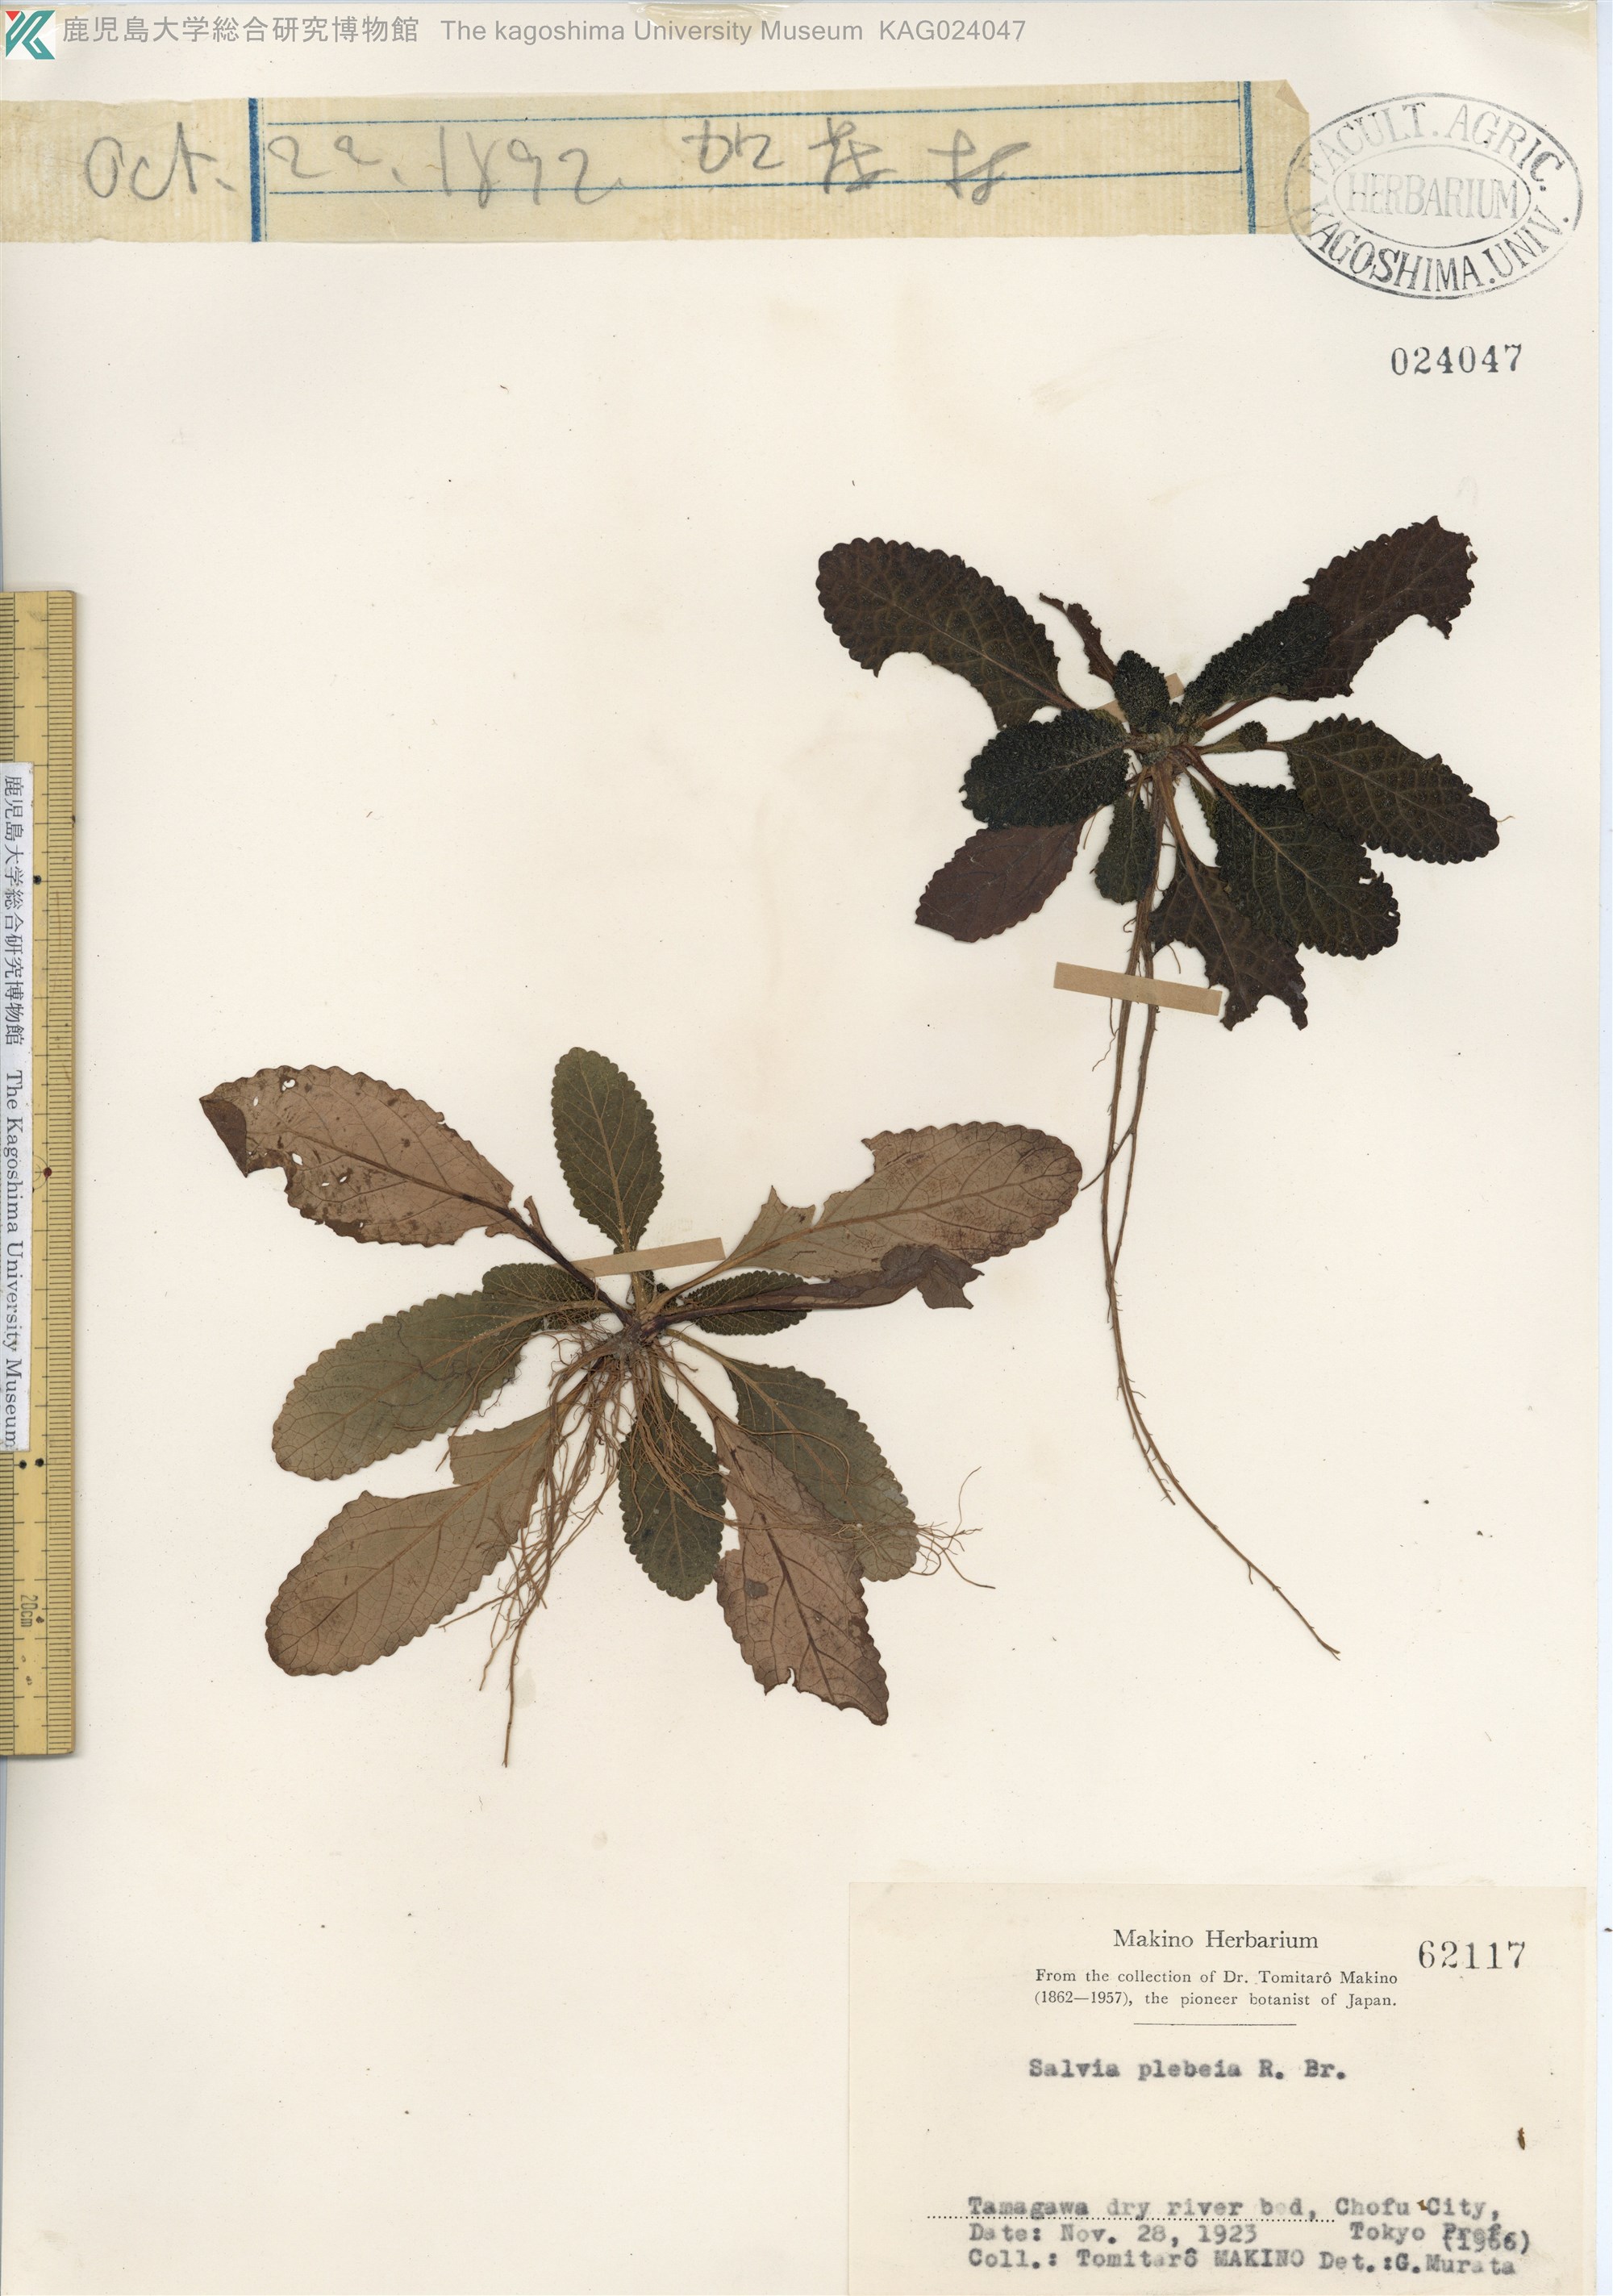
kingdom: Plantae
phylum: Tracheophyta
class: Magnoliopsida
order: Lamiales
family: Lamiaceae
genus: Salvia
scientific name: Salvia plebeia
